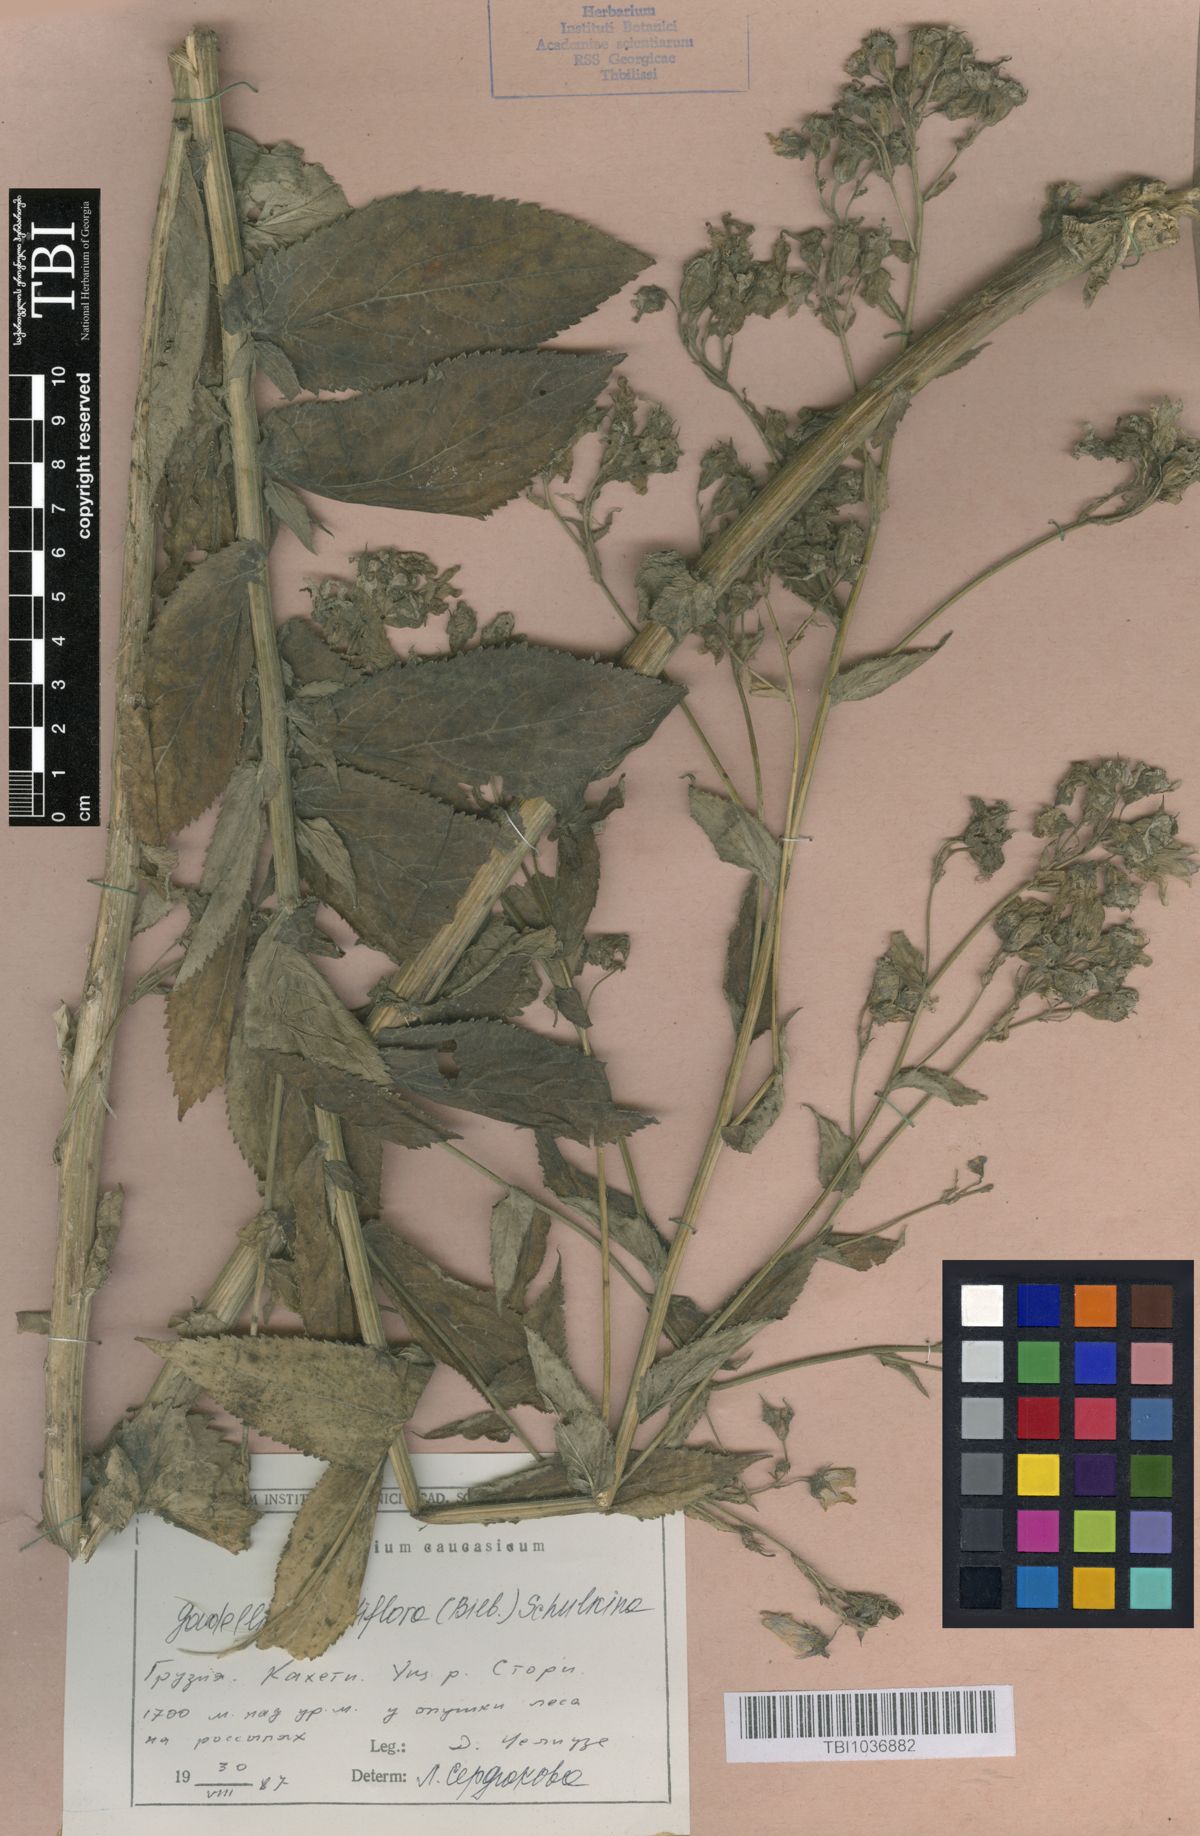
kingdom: Plantae
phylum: Tracheophyta
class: Magnoliopsida
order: Asterales
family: Campanulaceae
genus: Campanula
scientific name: Campanula lactiflora
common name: Milky bellflower
